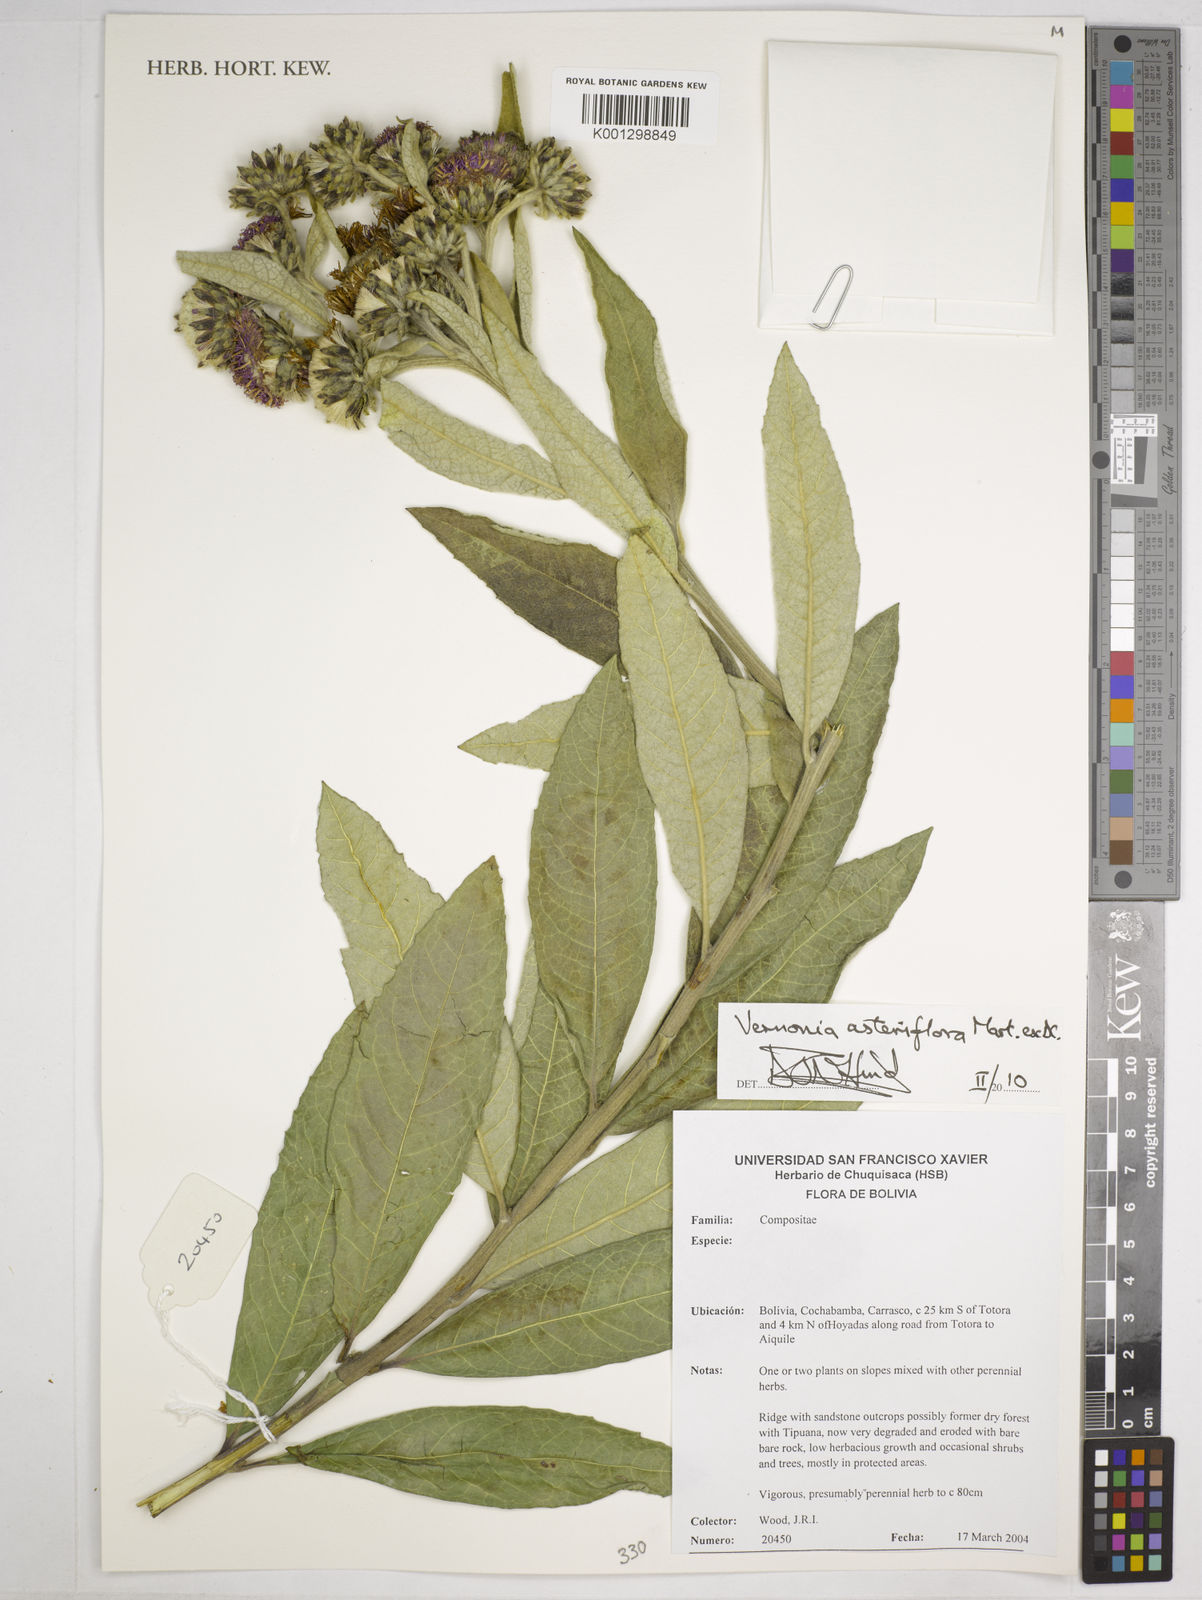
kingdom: Plantae
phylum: Tracheophyta
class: Magnoliopsida
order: Asterales
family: Asteraceae
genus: Lessingianthus
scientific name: Lessingianthus asteriflorus
